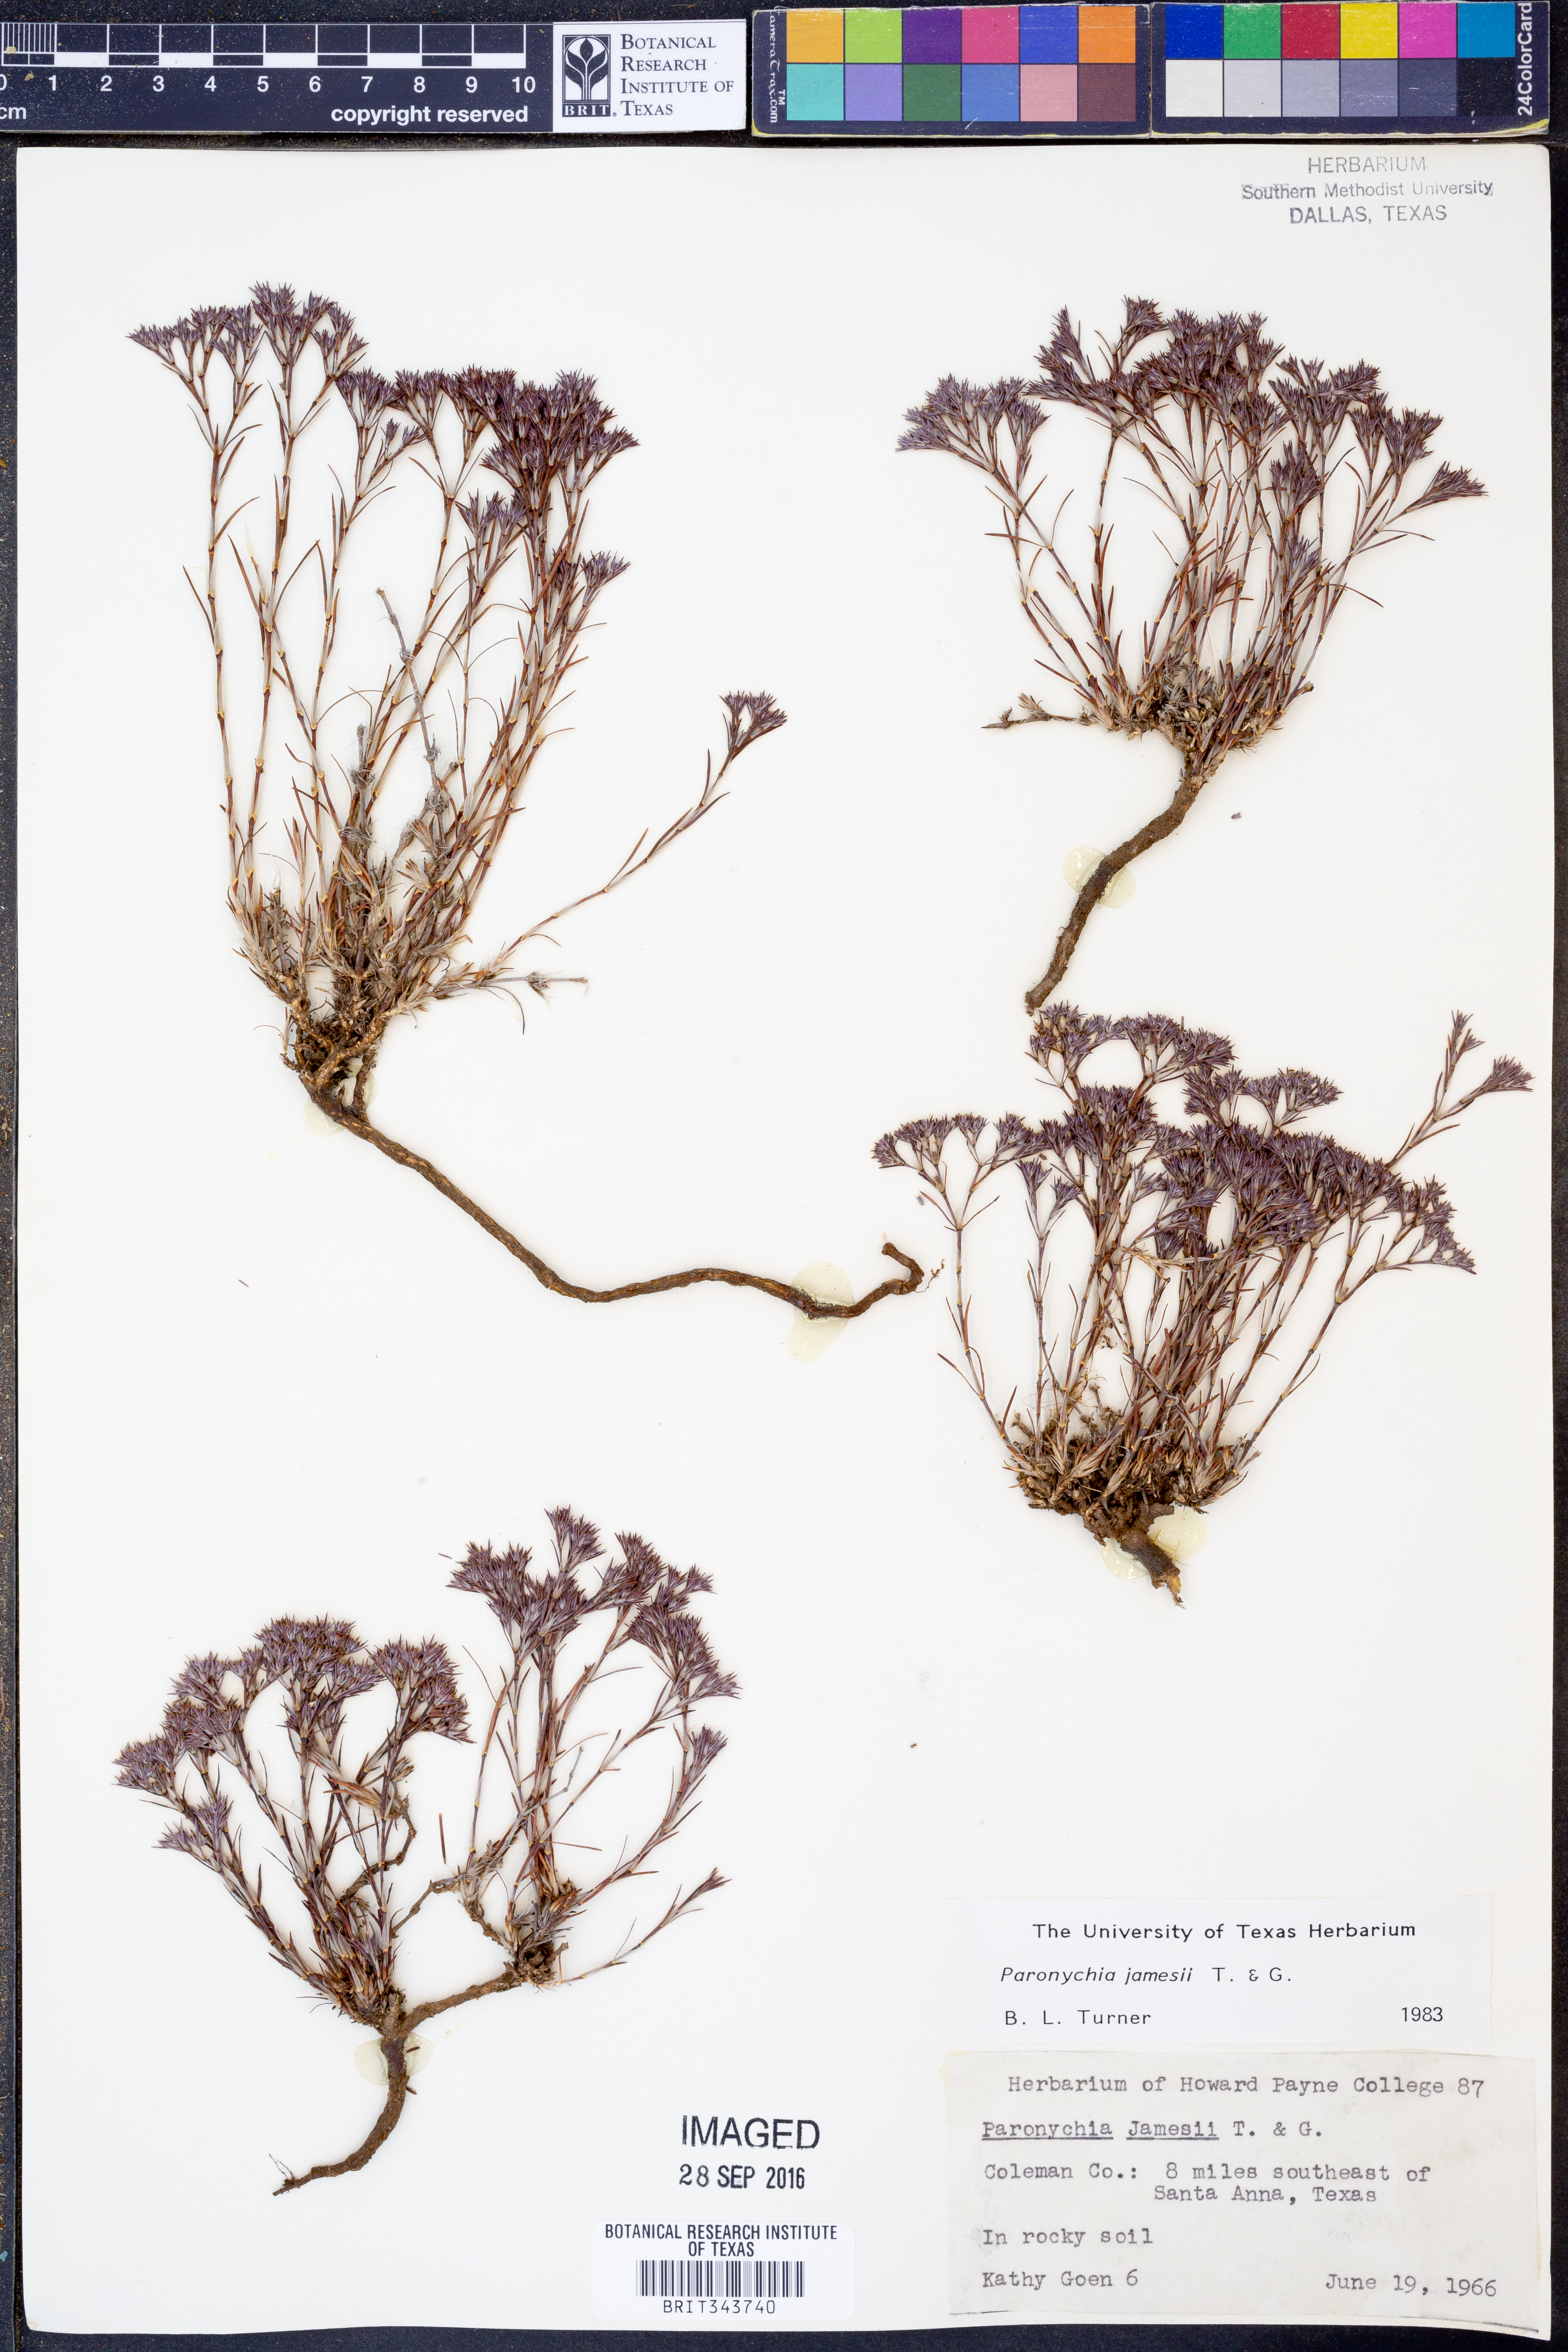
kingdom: Plantae
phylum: Tracheophyta
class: Magnoliopsida
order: Caryophyllales
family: Caryophyllaceae
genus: Paronychia
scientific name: Paronychia jamesii
